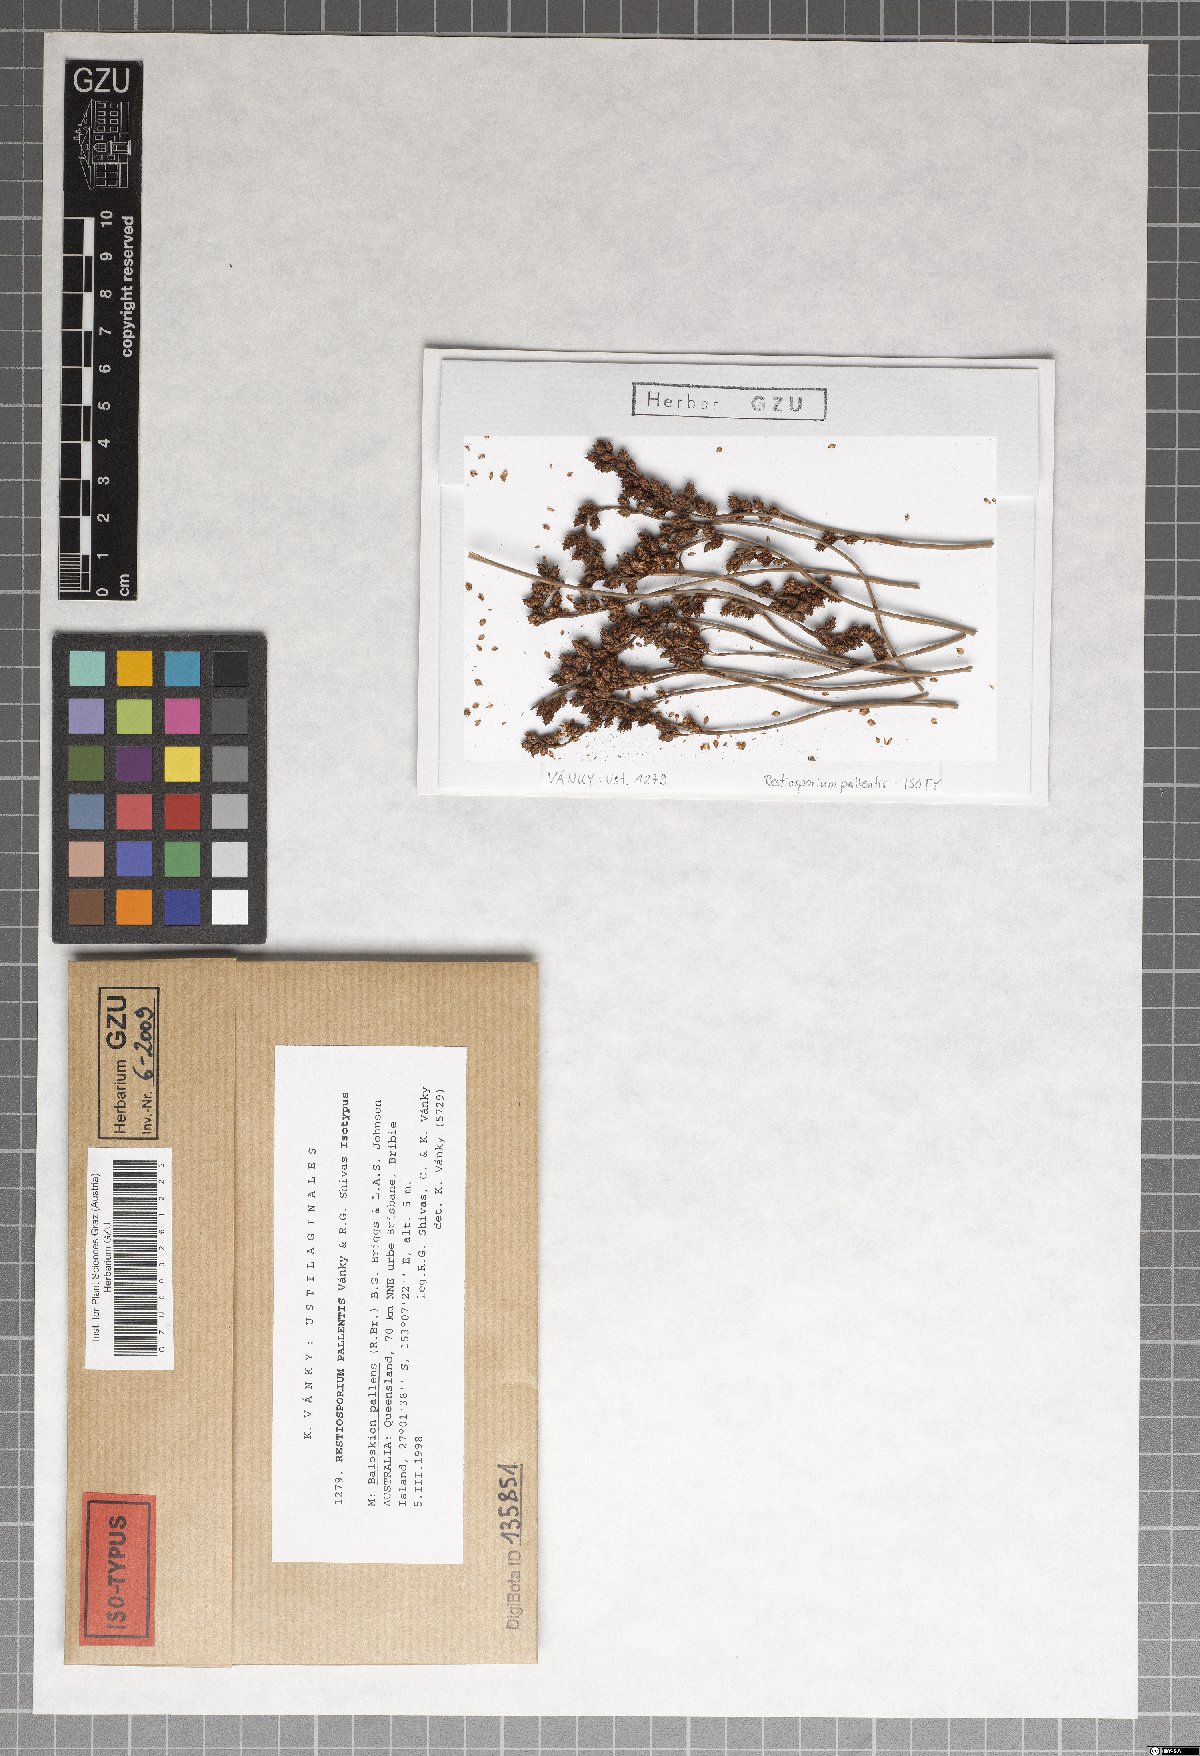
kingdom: Fungi
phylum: Basidiomycota
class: Ustilaginomycetes
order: Ustilaginales
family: Websdaneaceae
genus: Restiosporium
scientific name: Restiosporium pallentis
